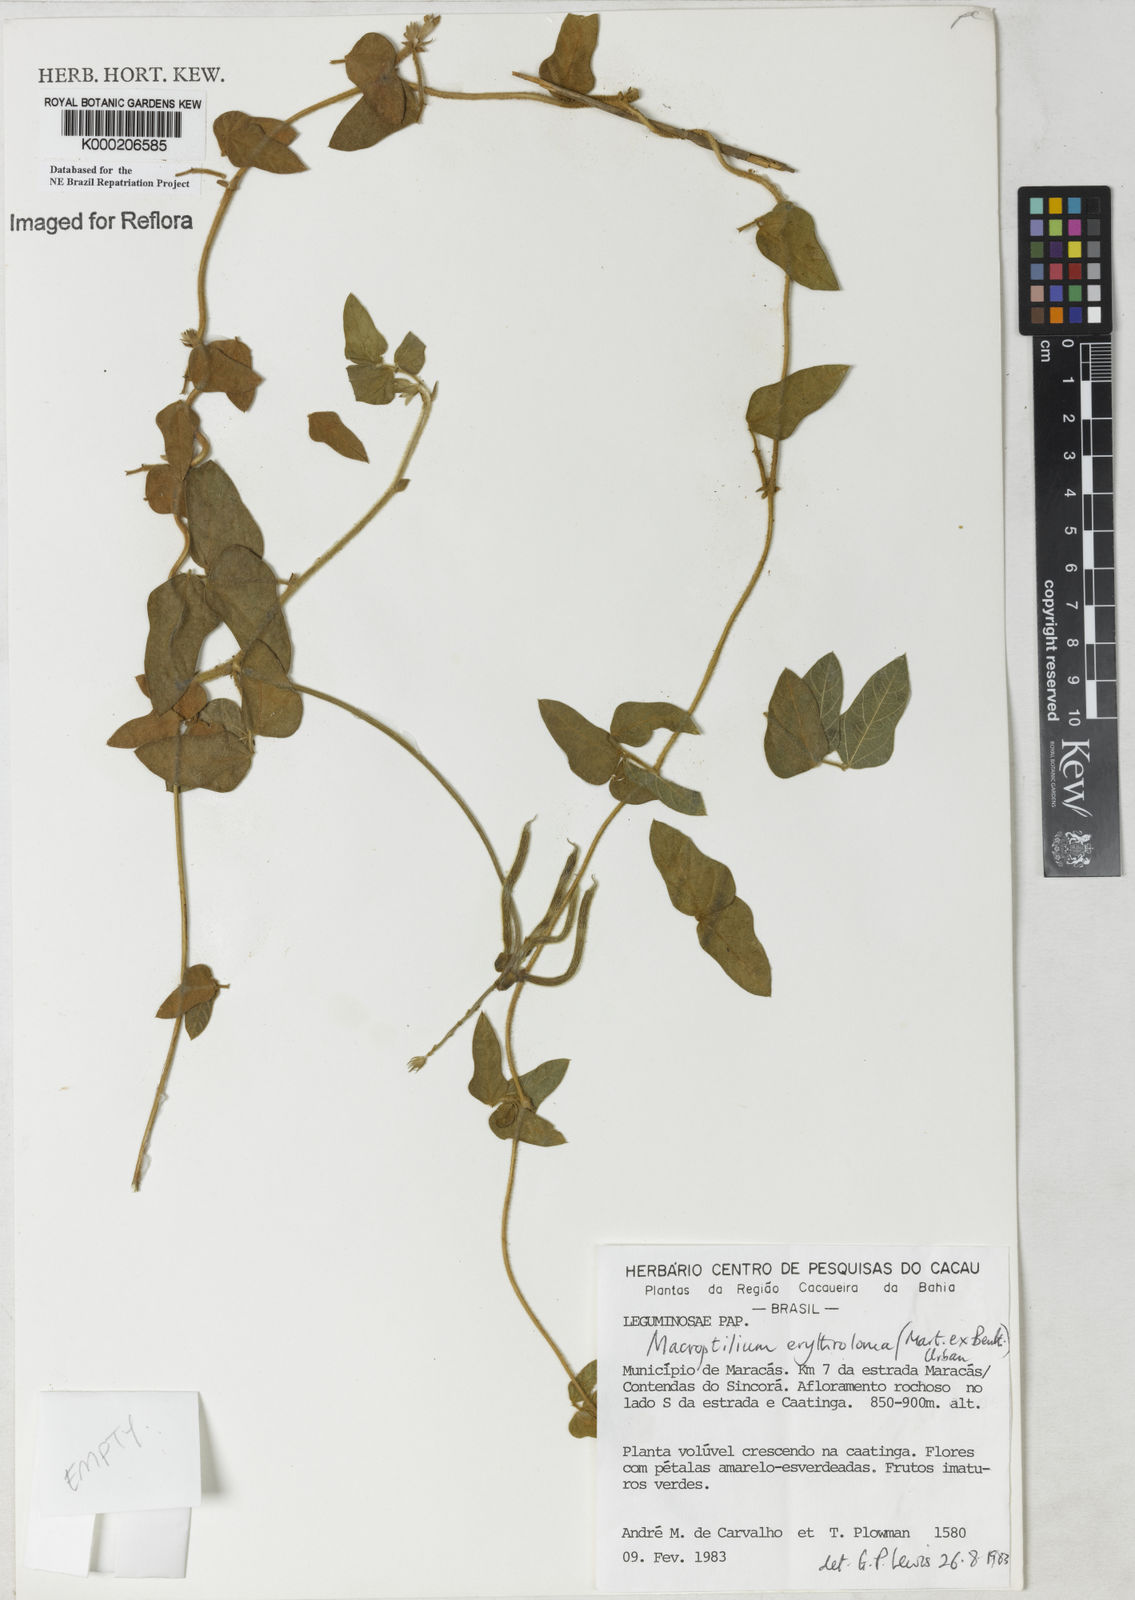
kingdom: Plantae
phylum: Tracheophyta
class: Magnoliopsida
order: Fabales
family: Fabaceae
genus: Macroptilium
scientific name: Macroptilium erythroloma
